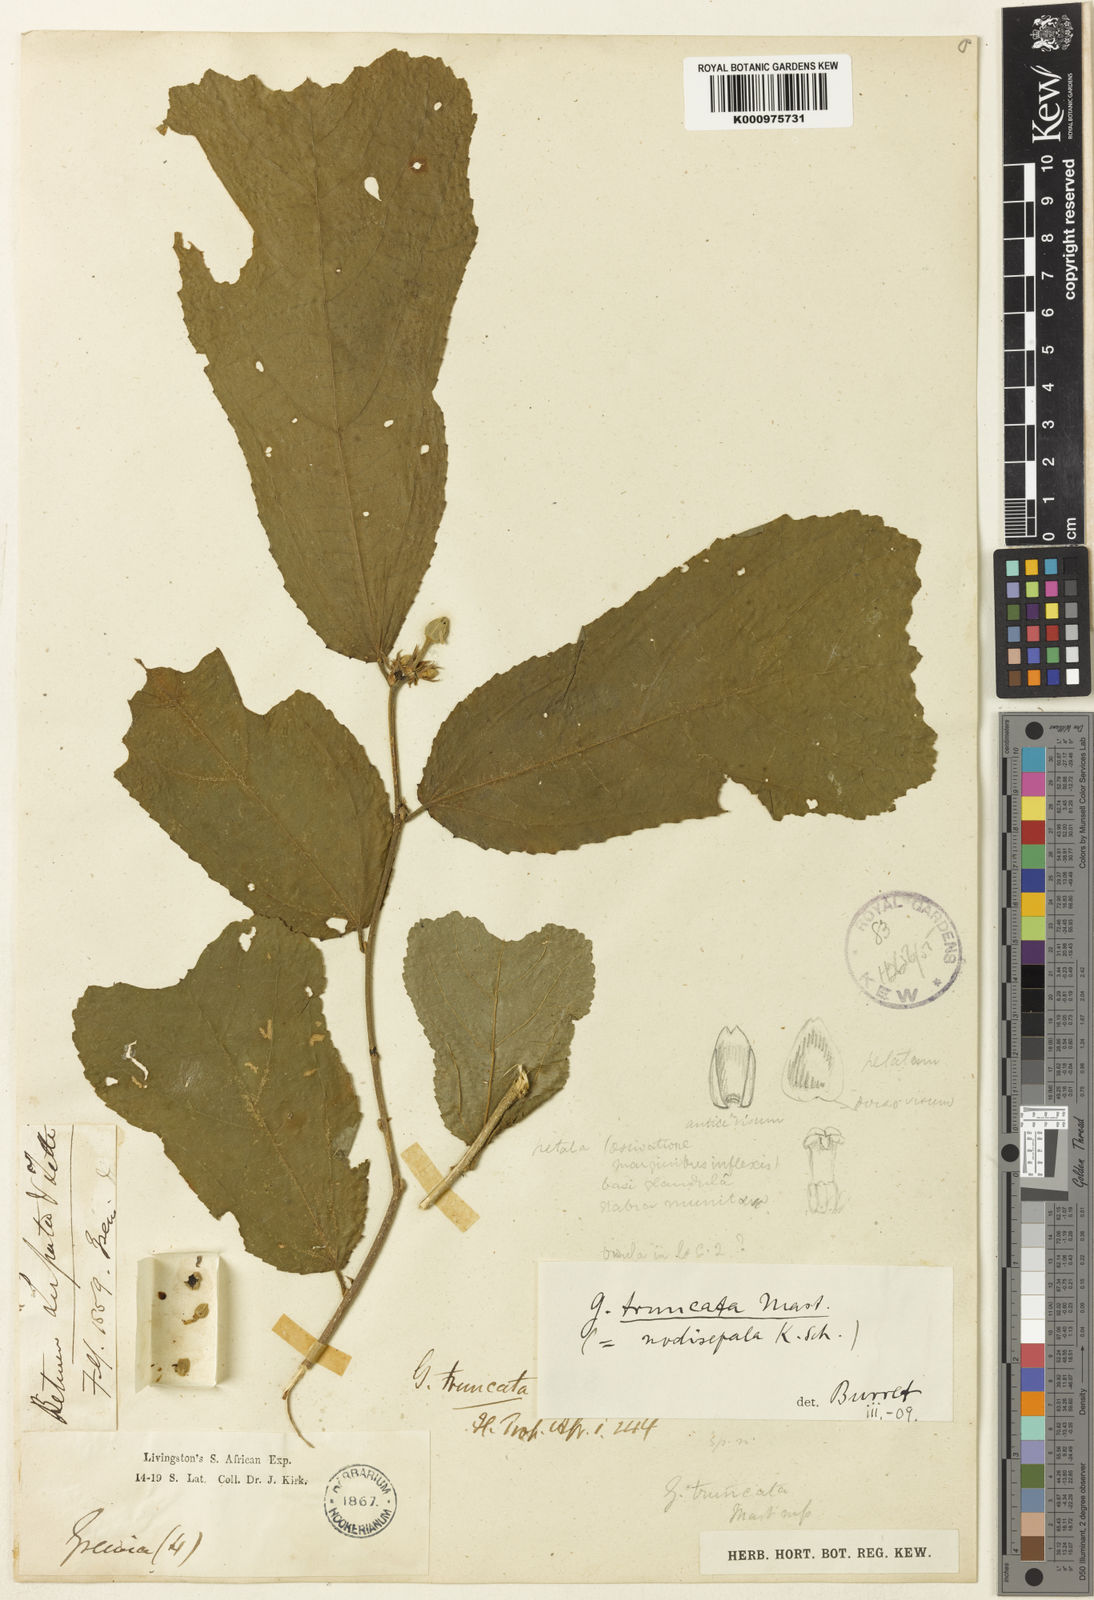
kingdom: Plantae
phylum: Tracheophyta
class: Magnoliopsida
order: Malvales
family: Malvaceae
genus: Grewia
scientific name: Grewia truncata
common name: Mdomoko
